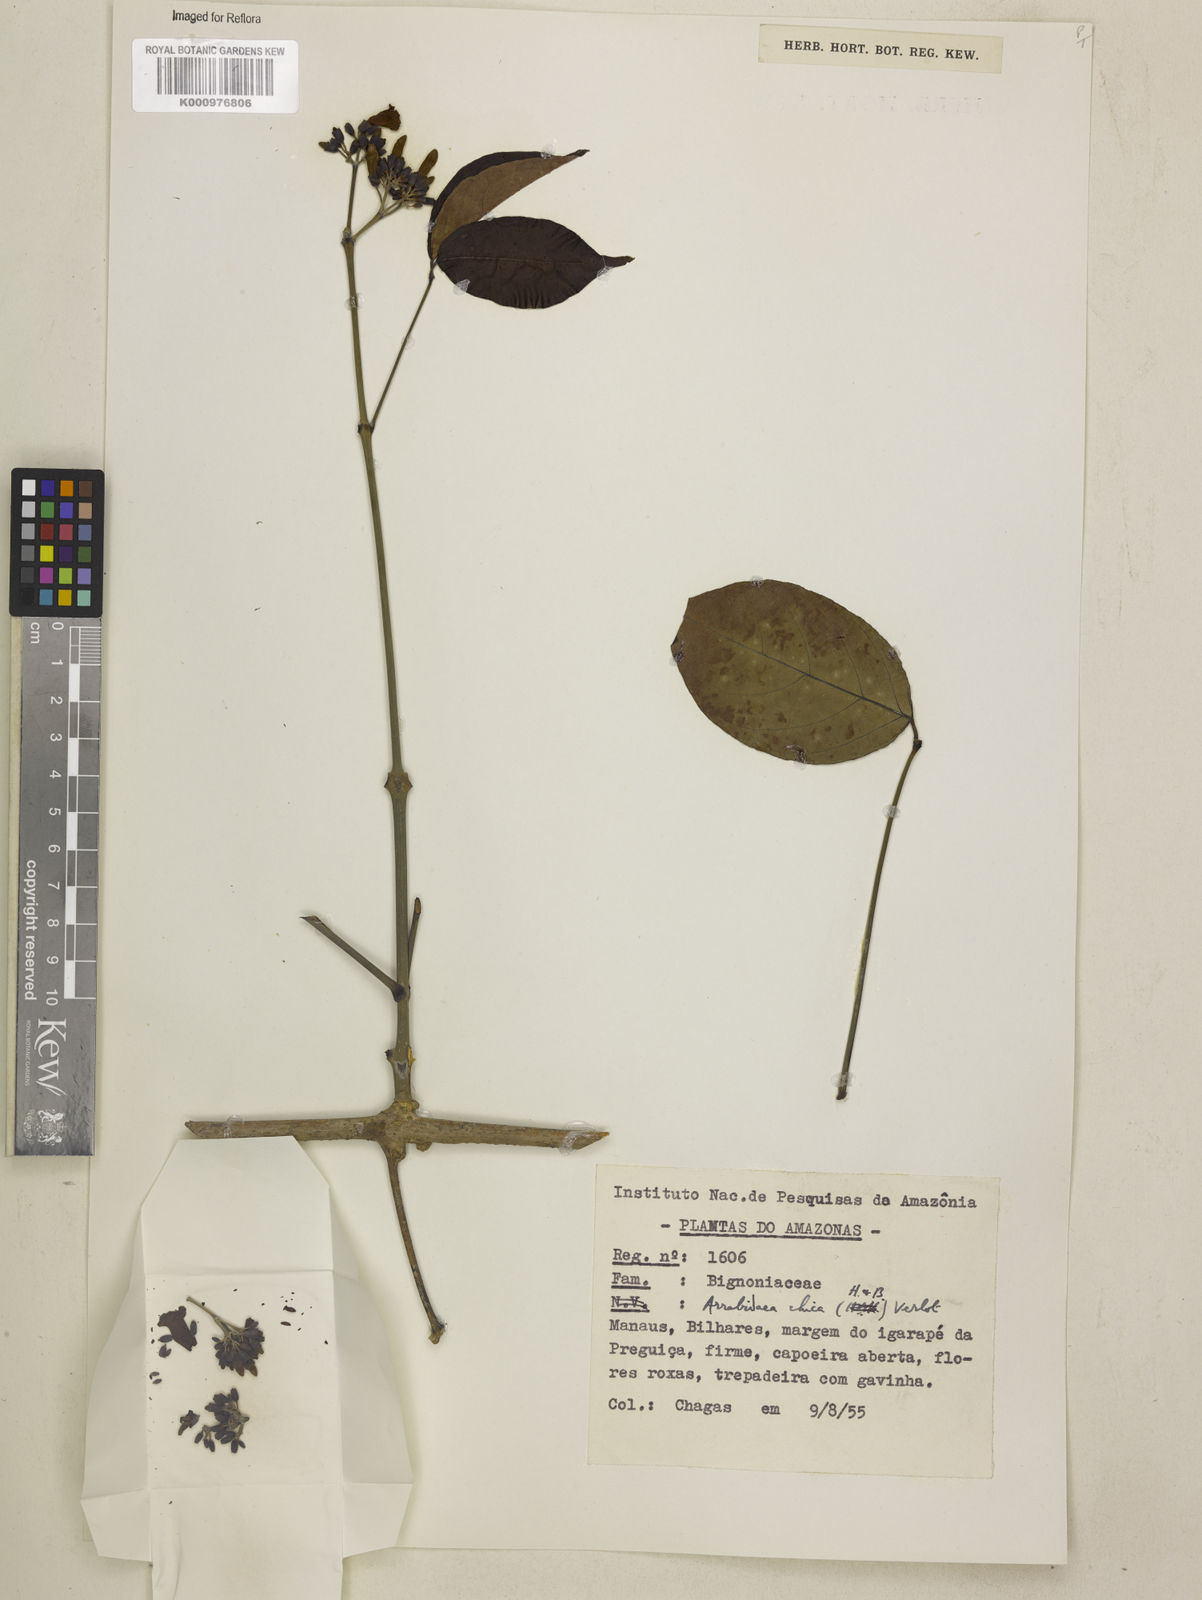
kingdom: Plantae
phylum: Tracheophyta
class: Magnoliopsida
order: Lamiales
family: Bignoniaceae
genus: Fridericia
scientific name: Fridericia chica
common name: Cricketvine
